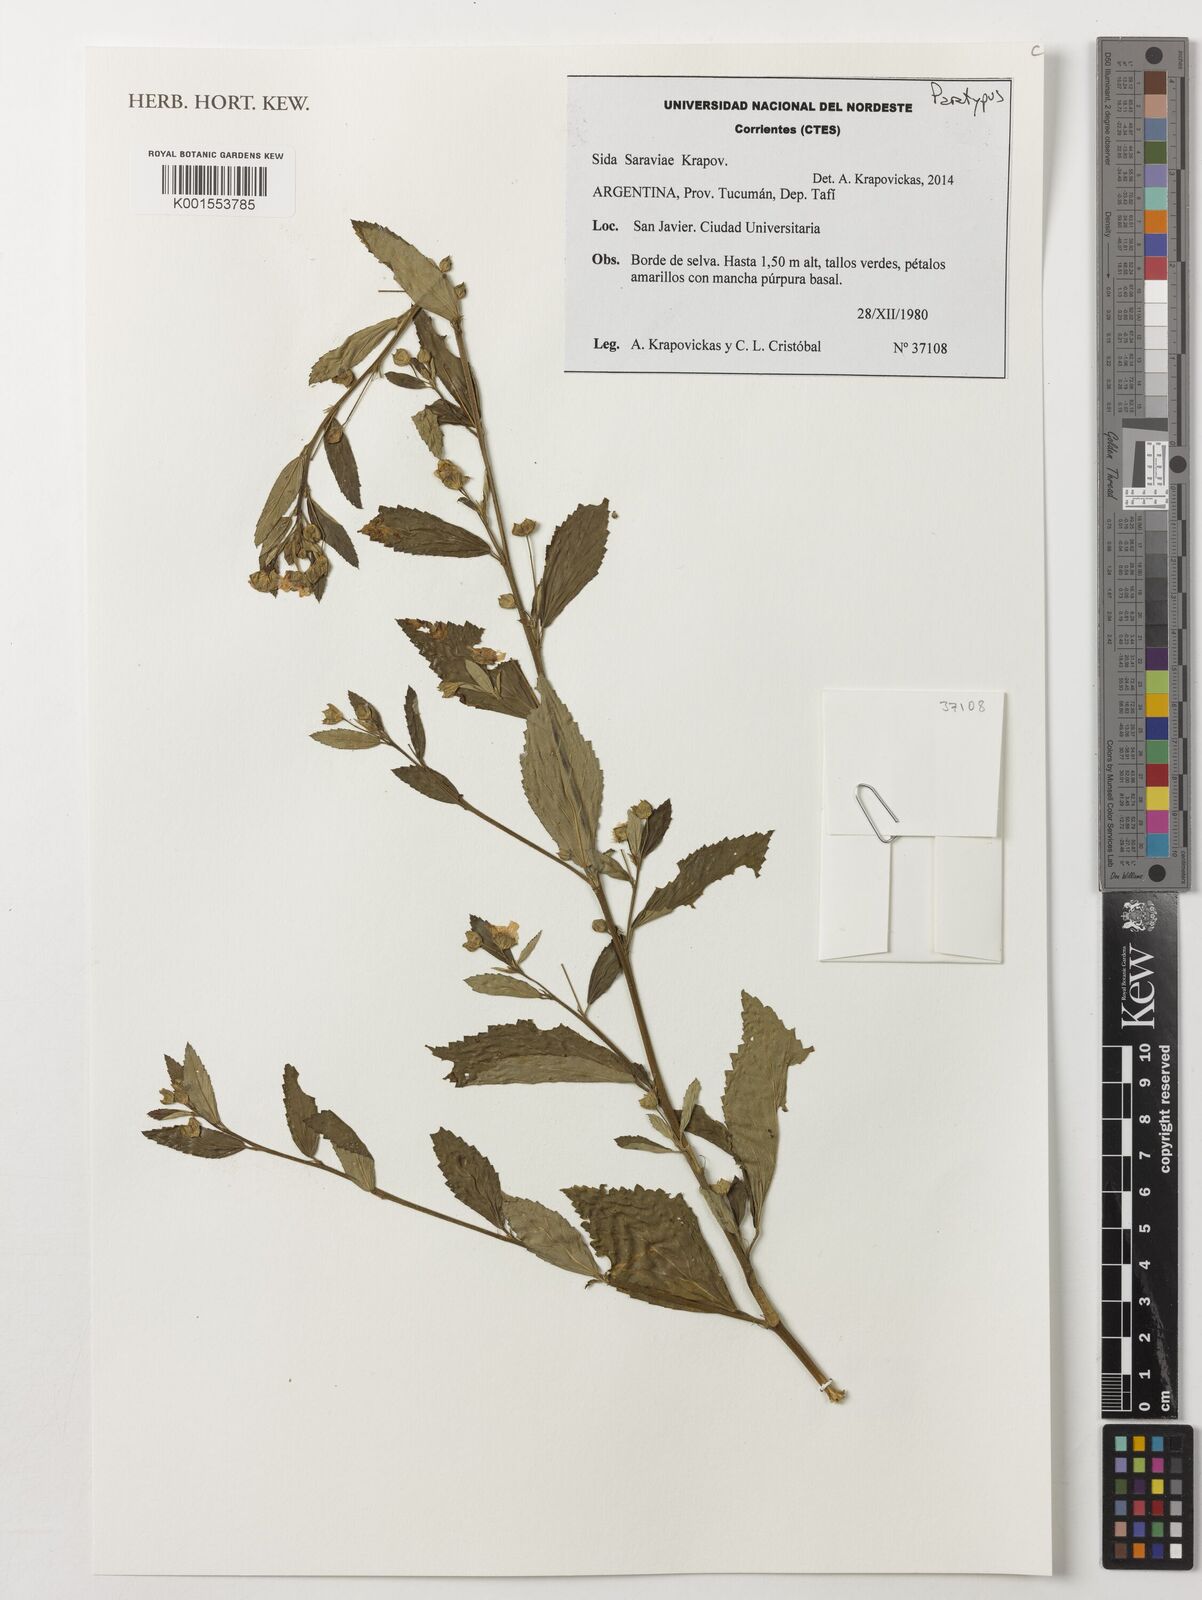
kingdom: Plantae
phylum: Tracheophyta
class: Magnoliopsida
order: Malvales
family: Malvaceae
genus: Sida
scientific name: Sida
